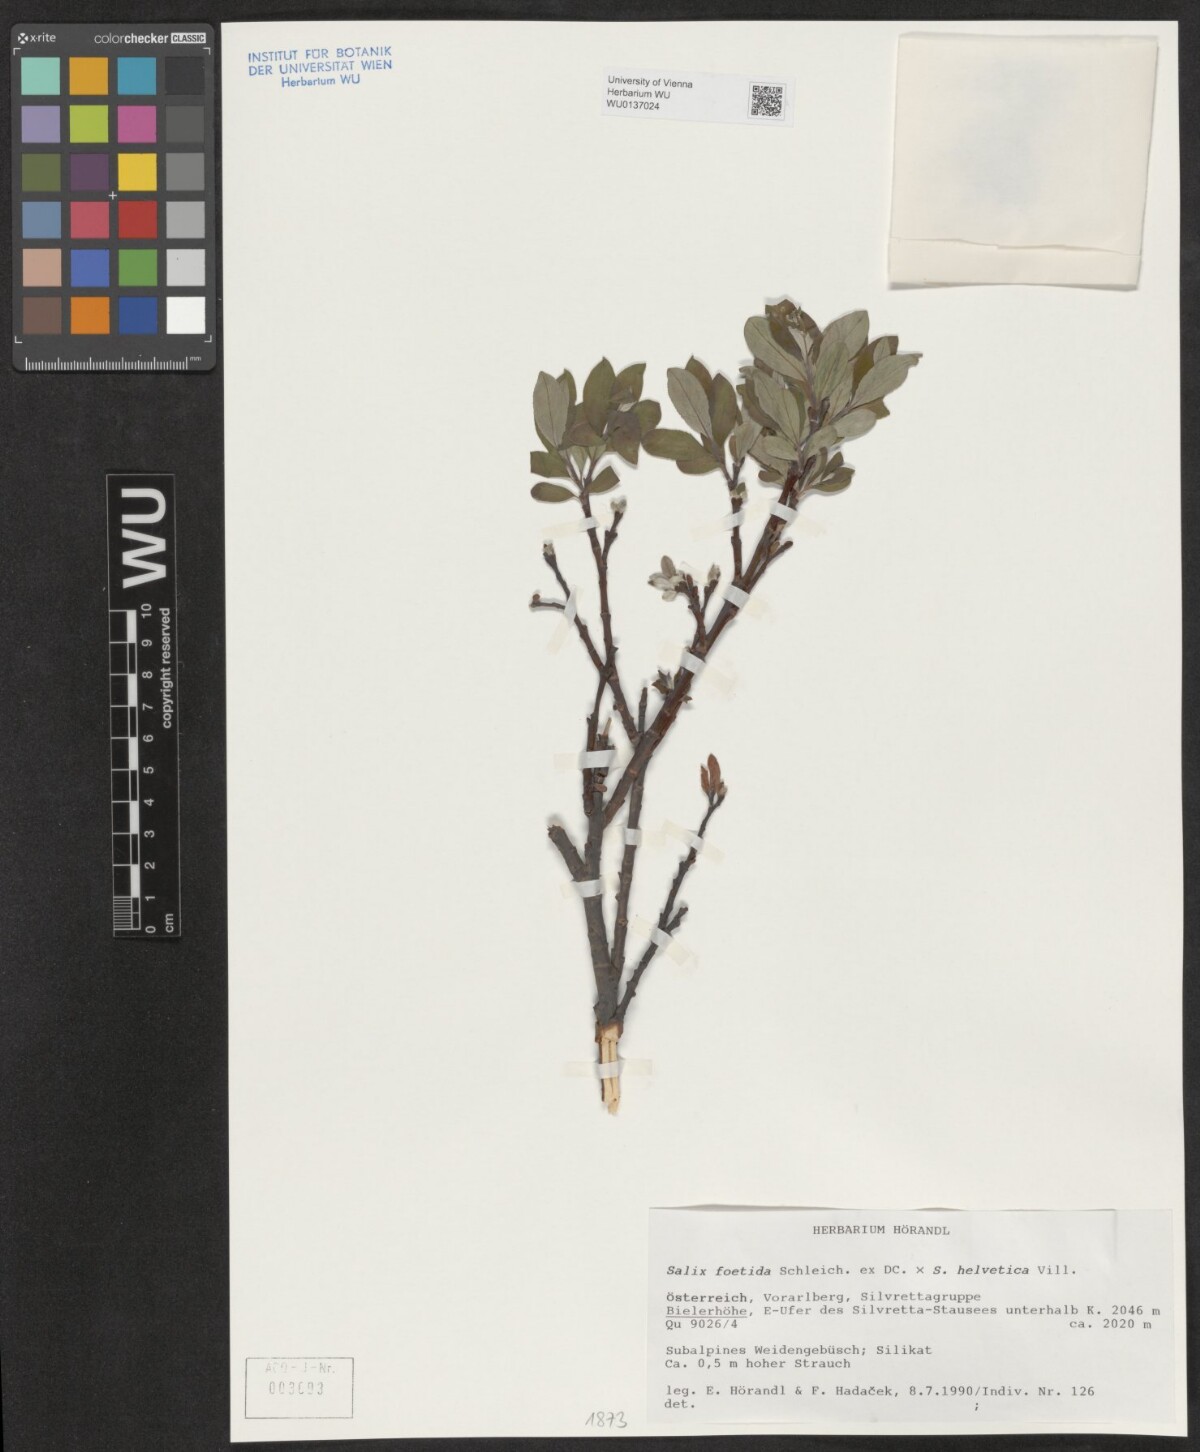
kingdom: Plantae
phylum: Tracheophyta
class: Magnoliopsida
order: Malpighiales
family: Salicaceae
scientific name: Salicaceae
